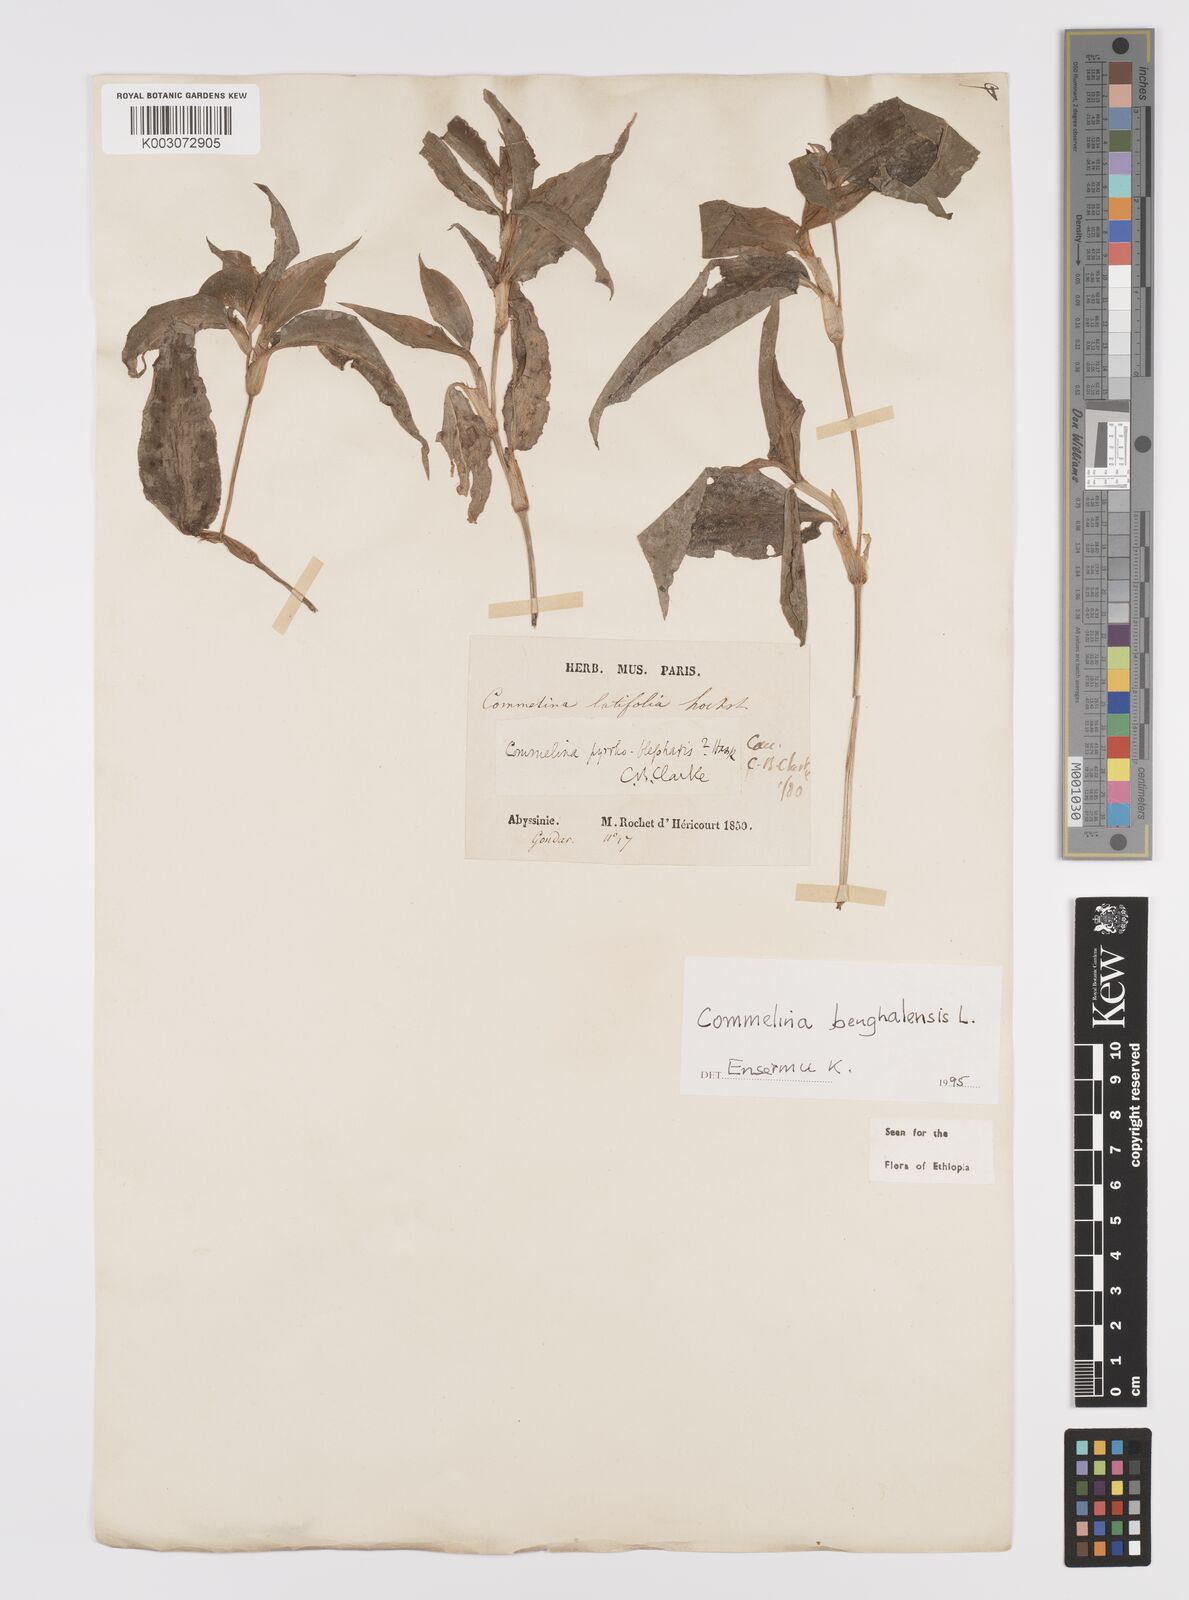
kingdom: Plantae
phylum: Tracheophyta
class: Liliopsida
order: Commelinales
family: Commelinaceae
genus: Commelina
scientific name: Commelina benghalensis
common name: Jio
